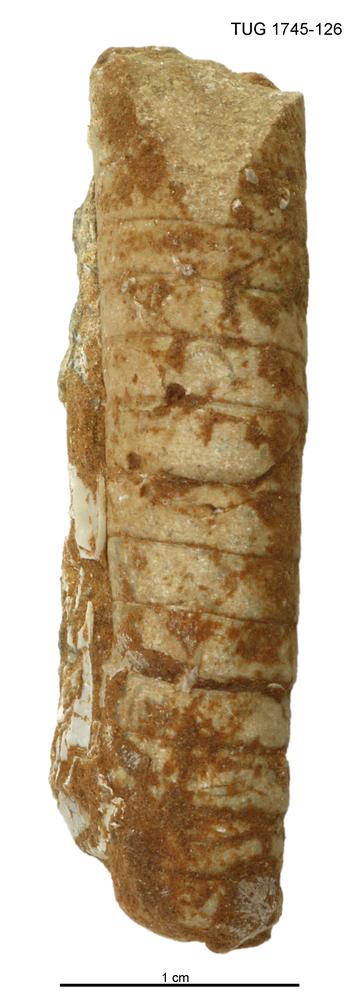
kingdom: Animalia
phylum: Mollusca
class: Cephalopoda
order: Orthocerida
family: Orthoceratidae
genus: Orthoceras
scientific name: Orthoceras
